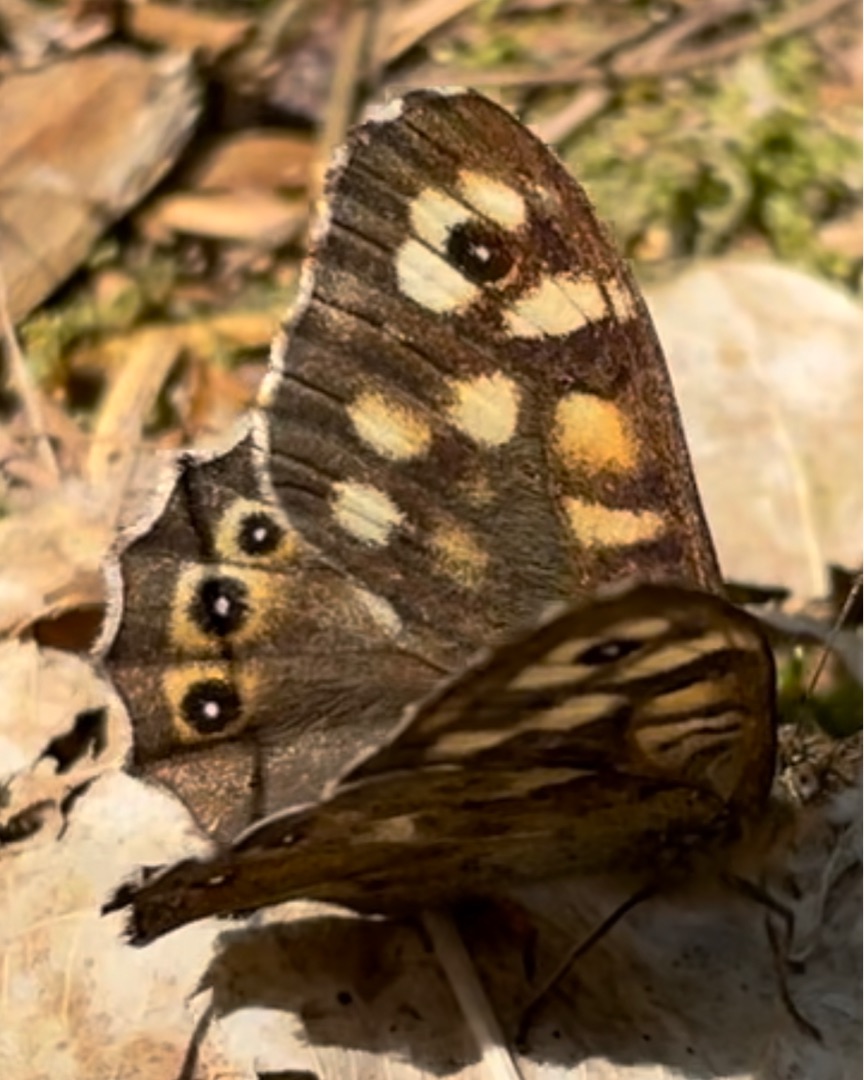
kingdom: Animalia
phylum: Arthropoda
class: Insecta
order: Lepidoptera
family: Nymphalidae
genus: Pararge
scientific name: Pararge aegeria
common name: Skovrandøje
